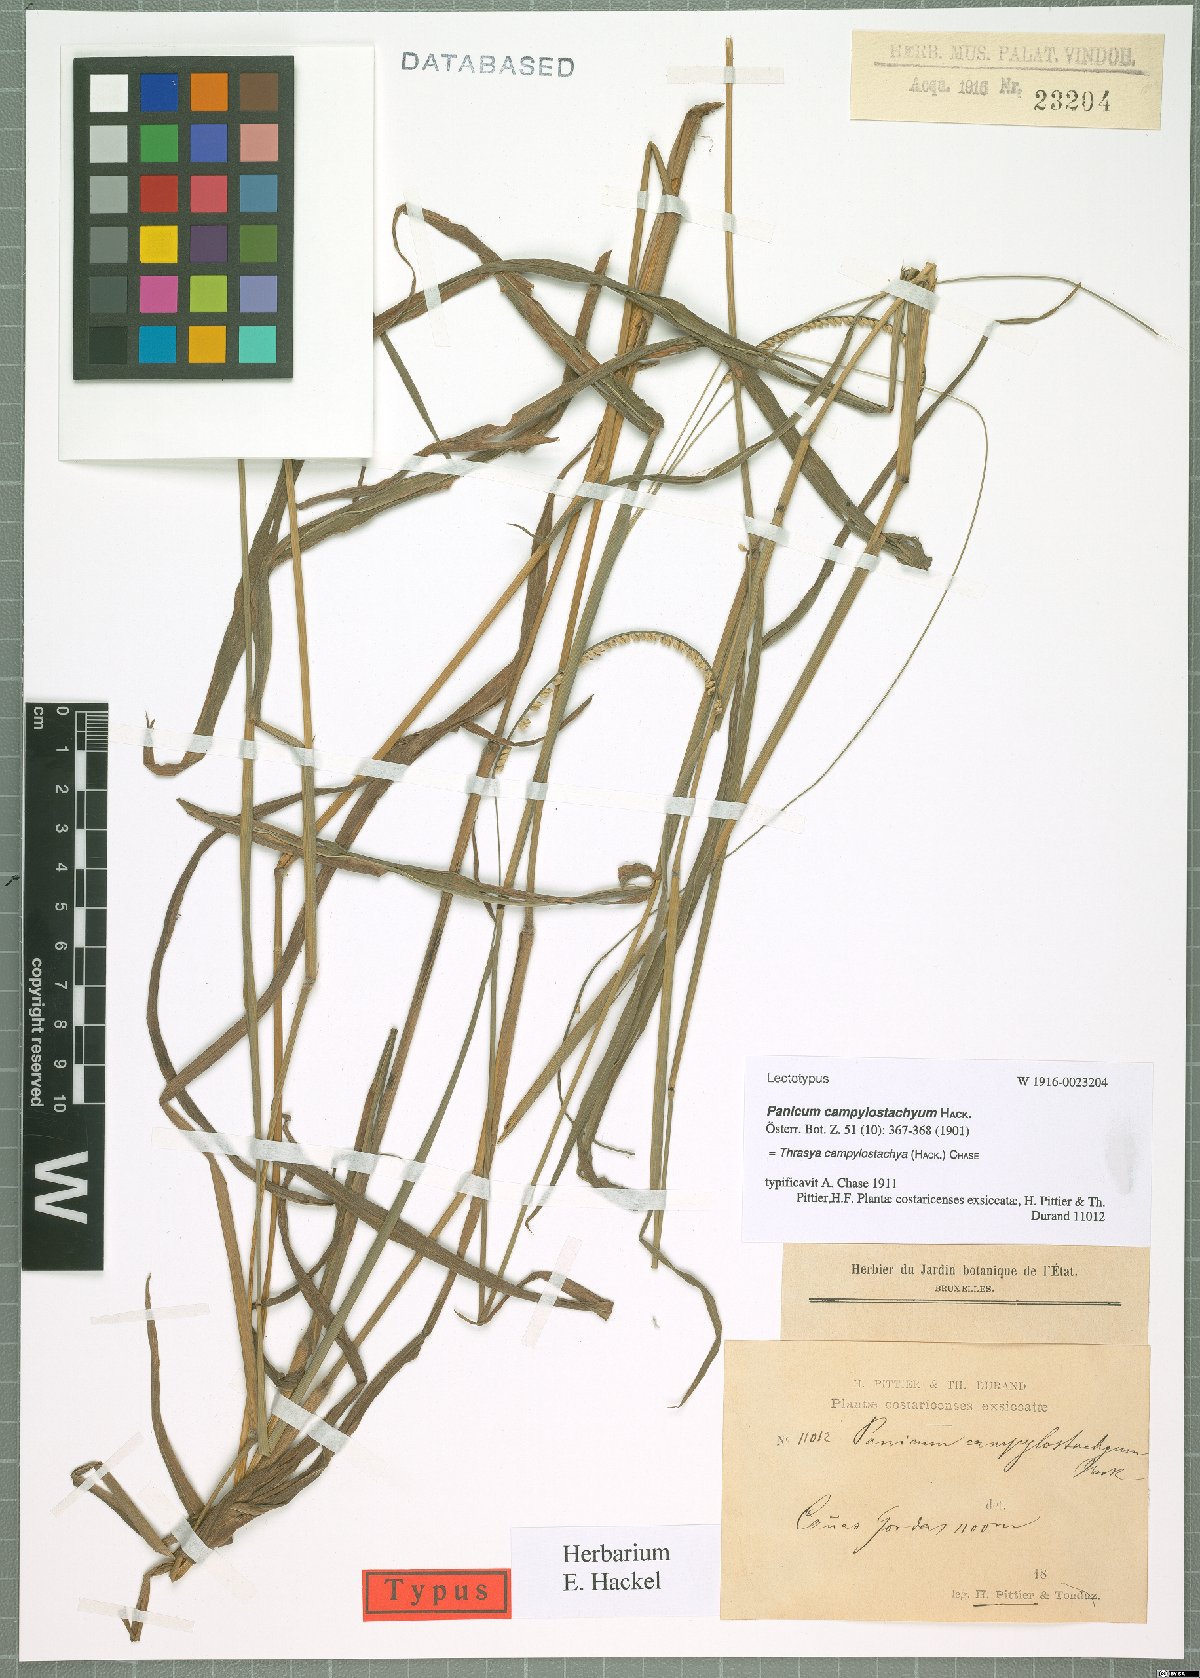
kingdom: Plantae
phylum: Tracheophyta
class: Liliopsida
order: Poales
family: Poaceae
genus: Paspalum
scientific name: Paspalum campylostachyum
